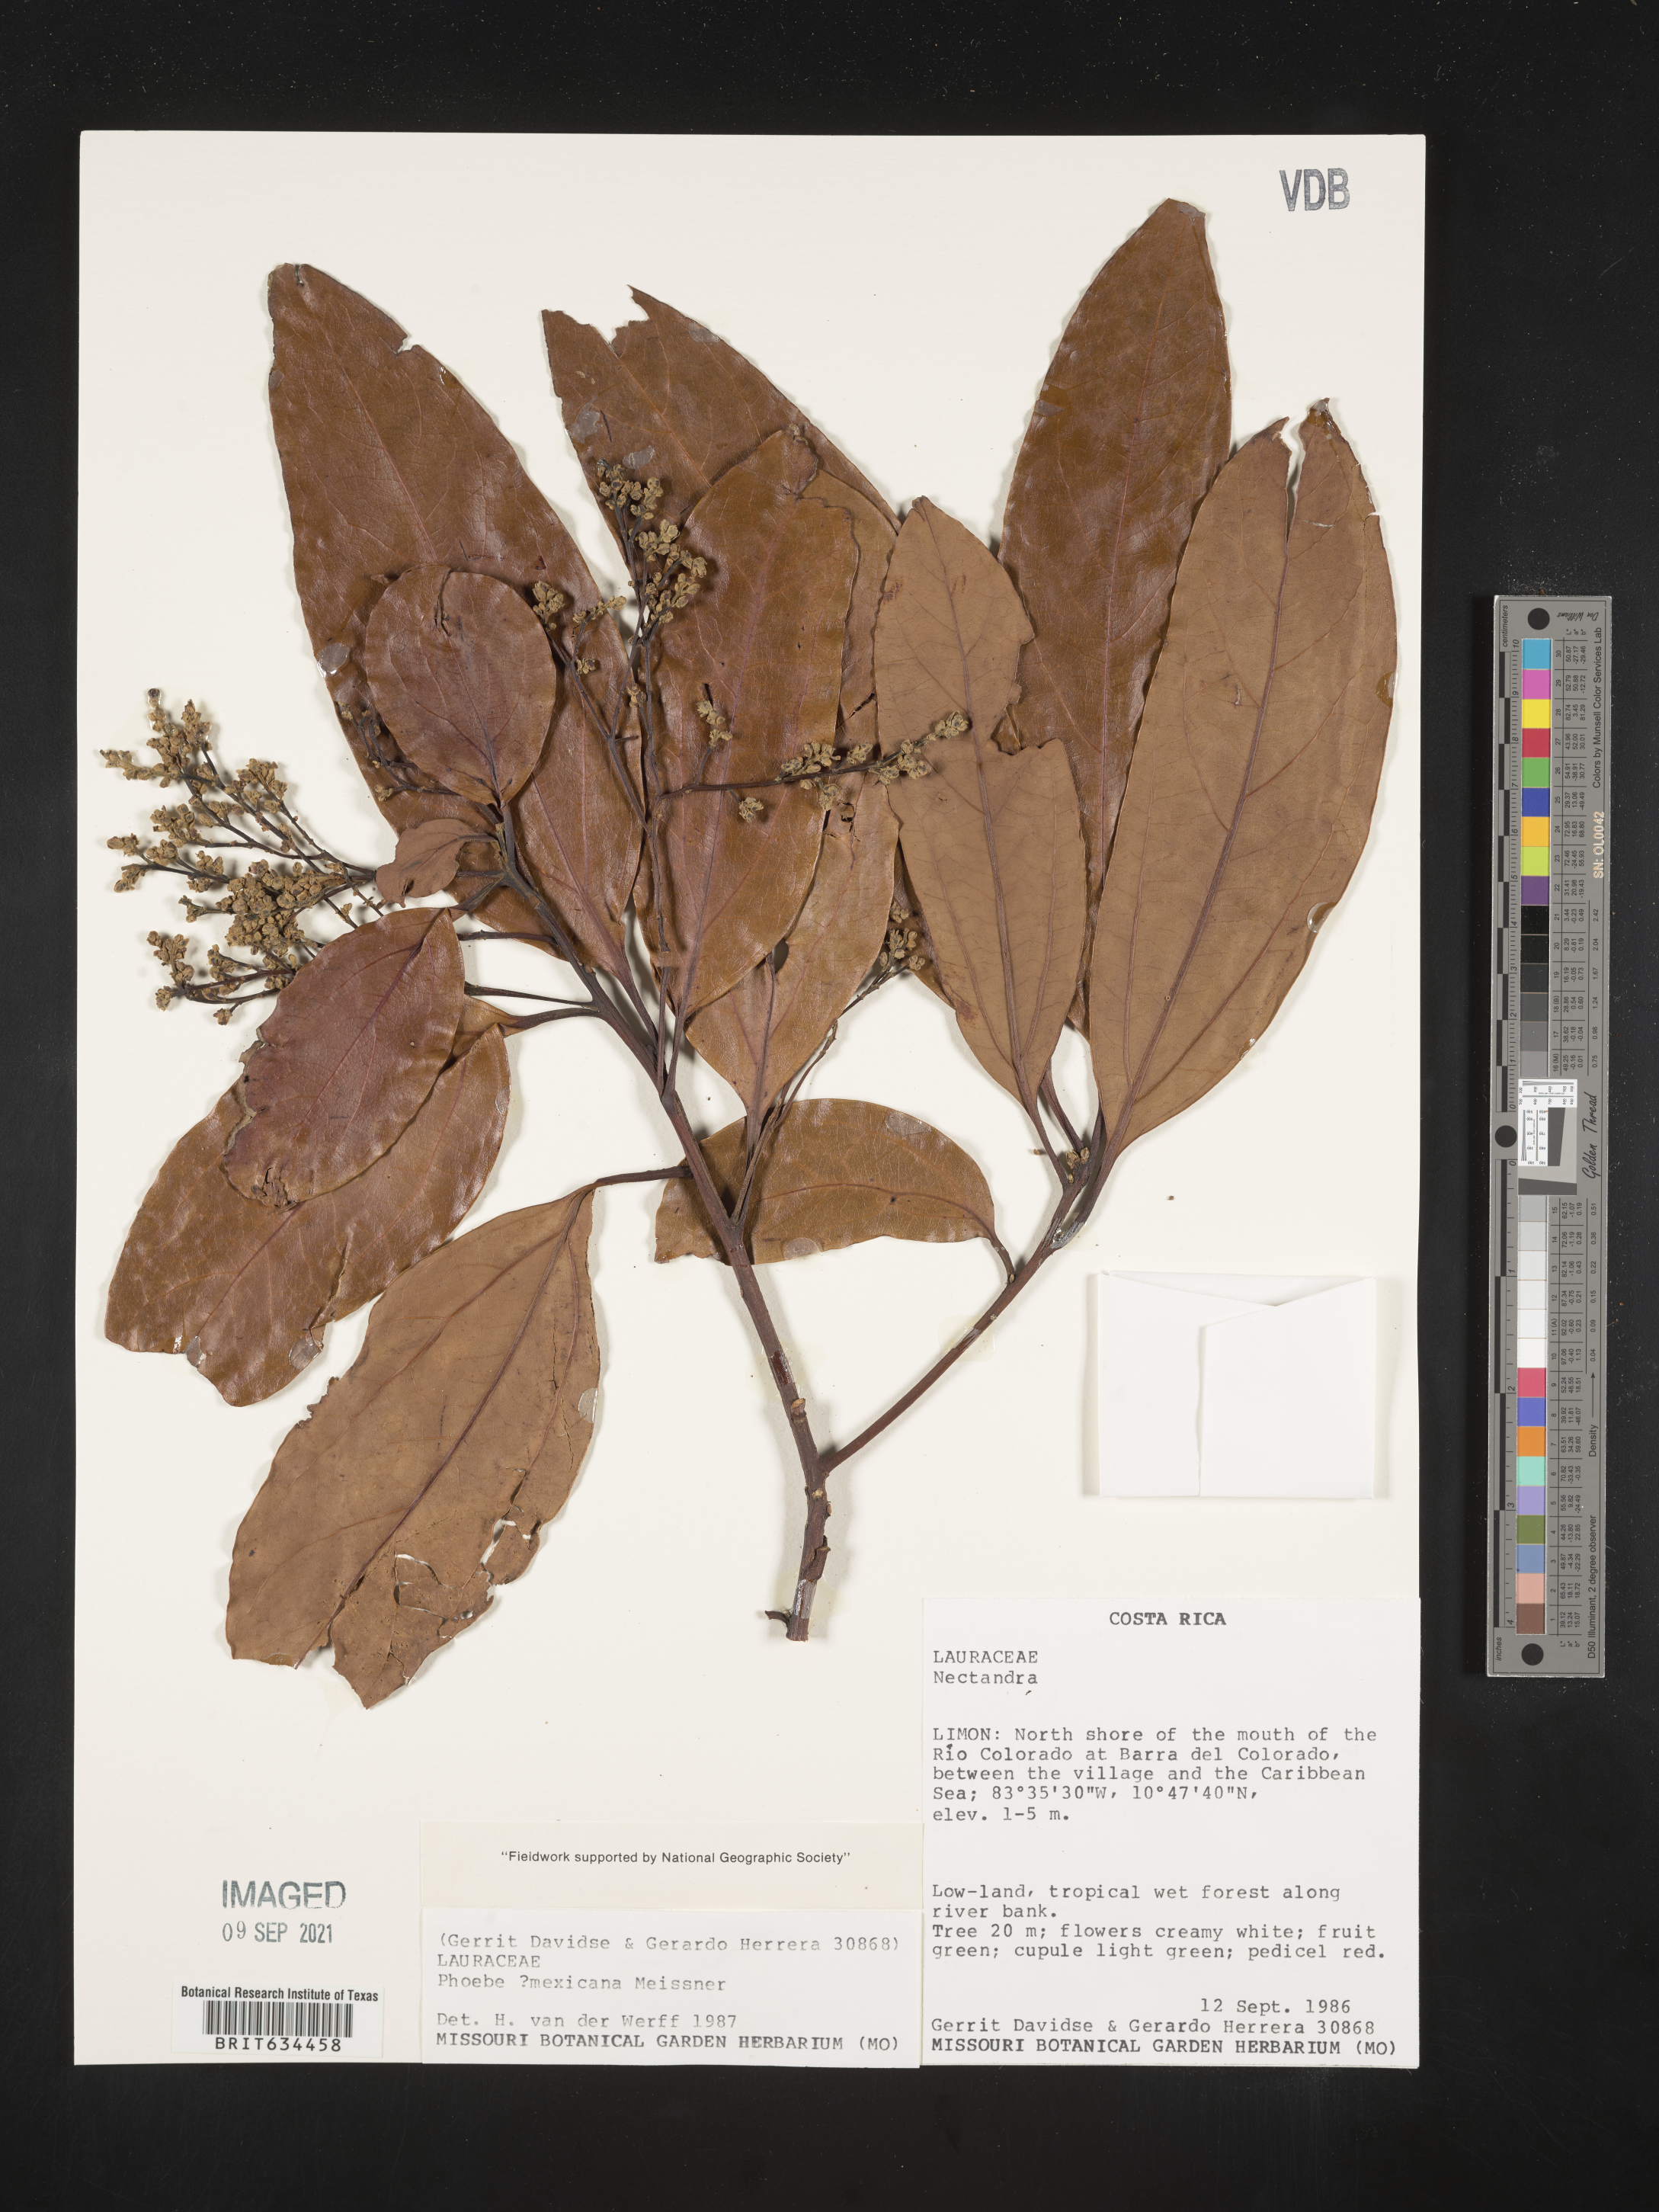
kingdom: Plantae
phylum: Tracheophyta
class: Magnoliopsida
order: Laurales
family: Lauraceae
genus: Phoebe
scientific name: Phoebe
